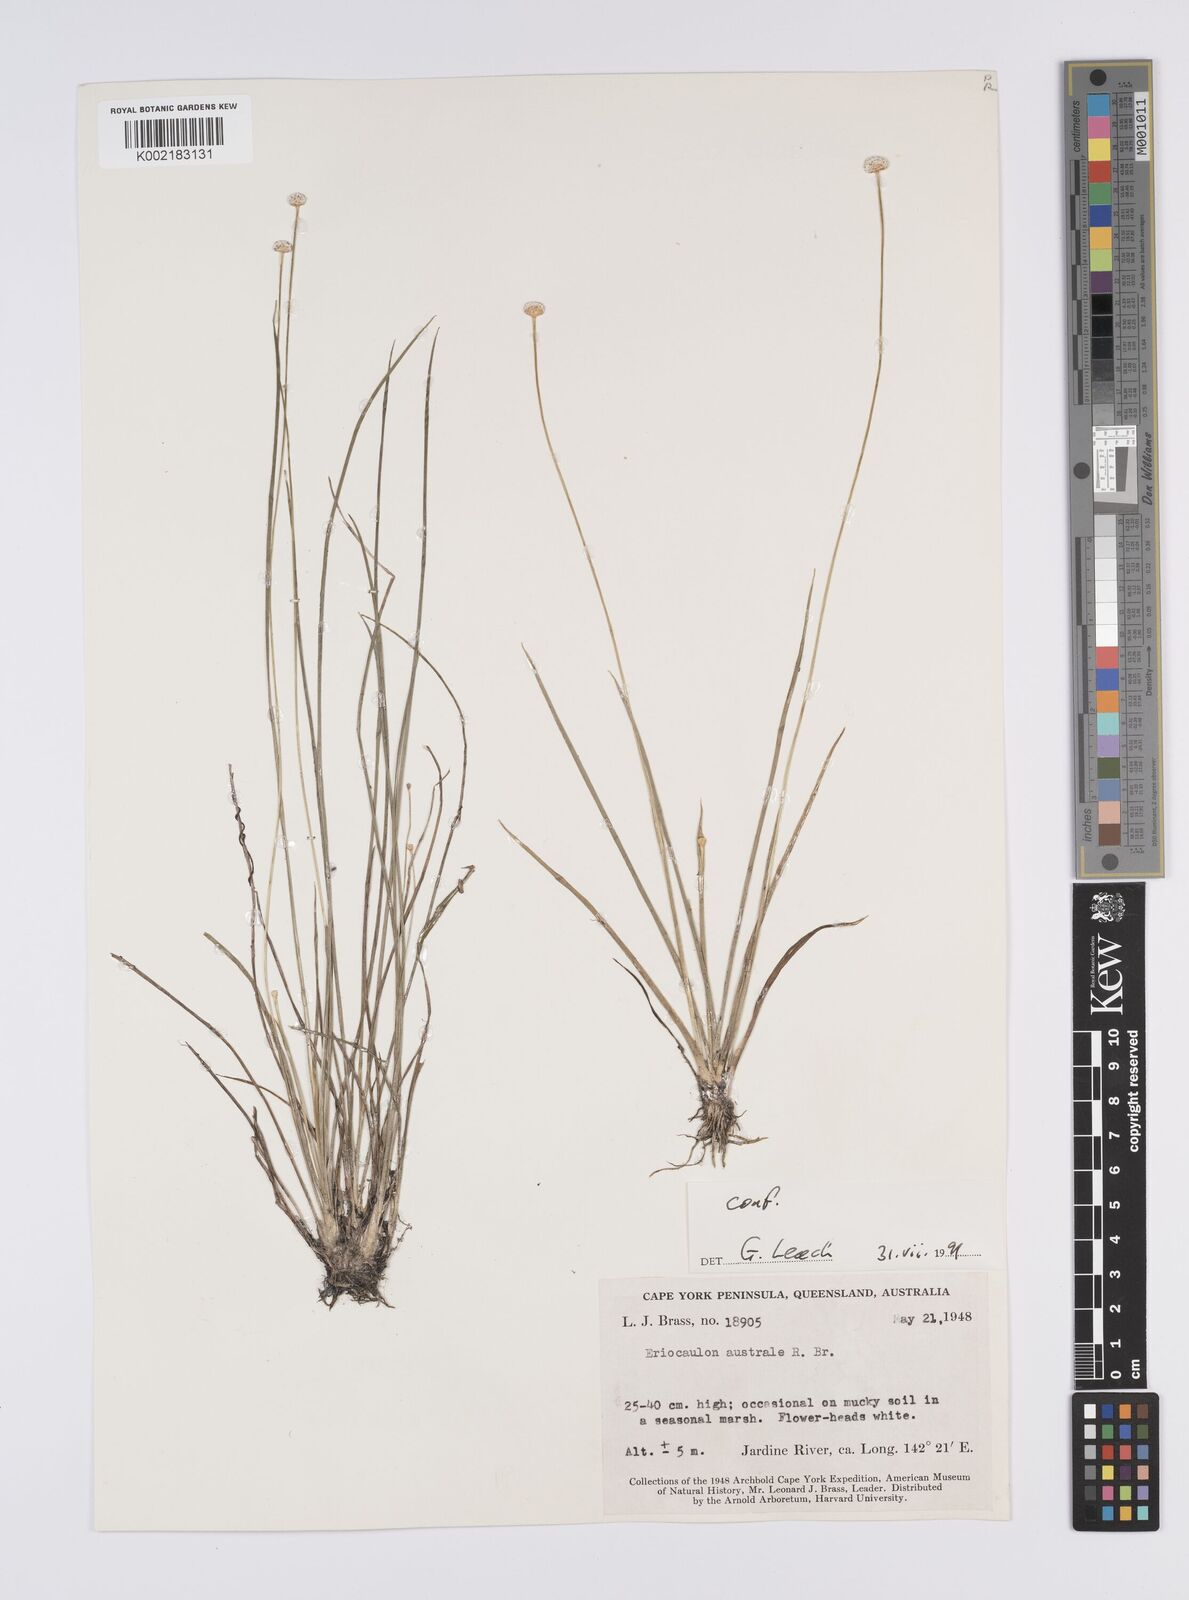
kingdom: Plantae
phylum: Tracheophyta
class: Liliopsida
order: Poales
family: Eriocaulaceae
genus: Eriocaulon
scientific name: Eriocaulon australe
